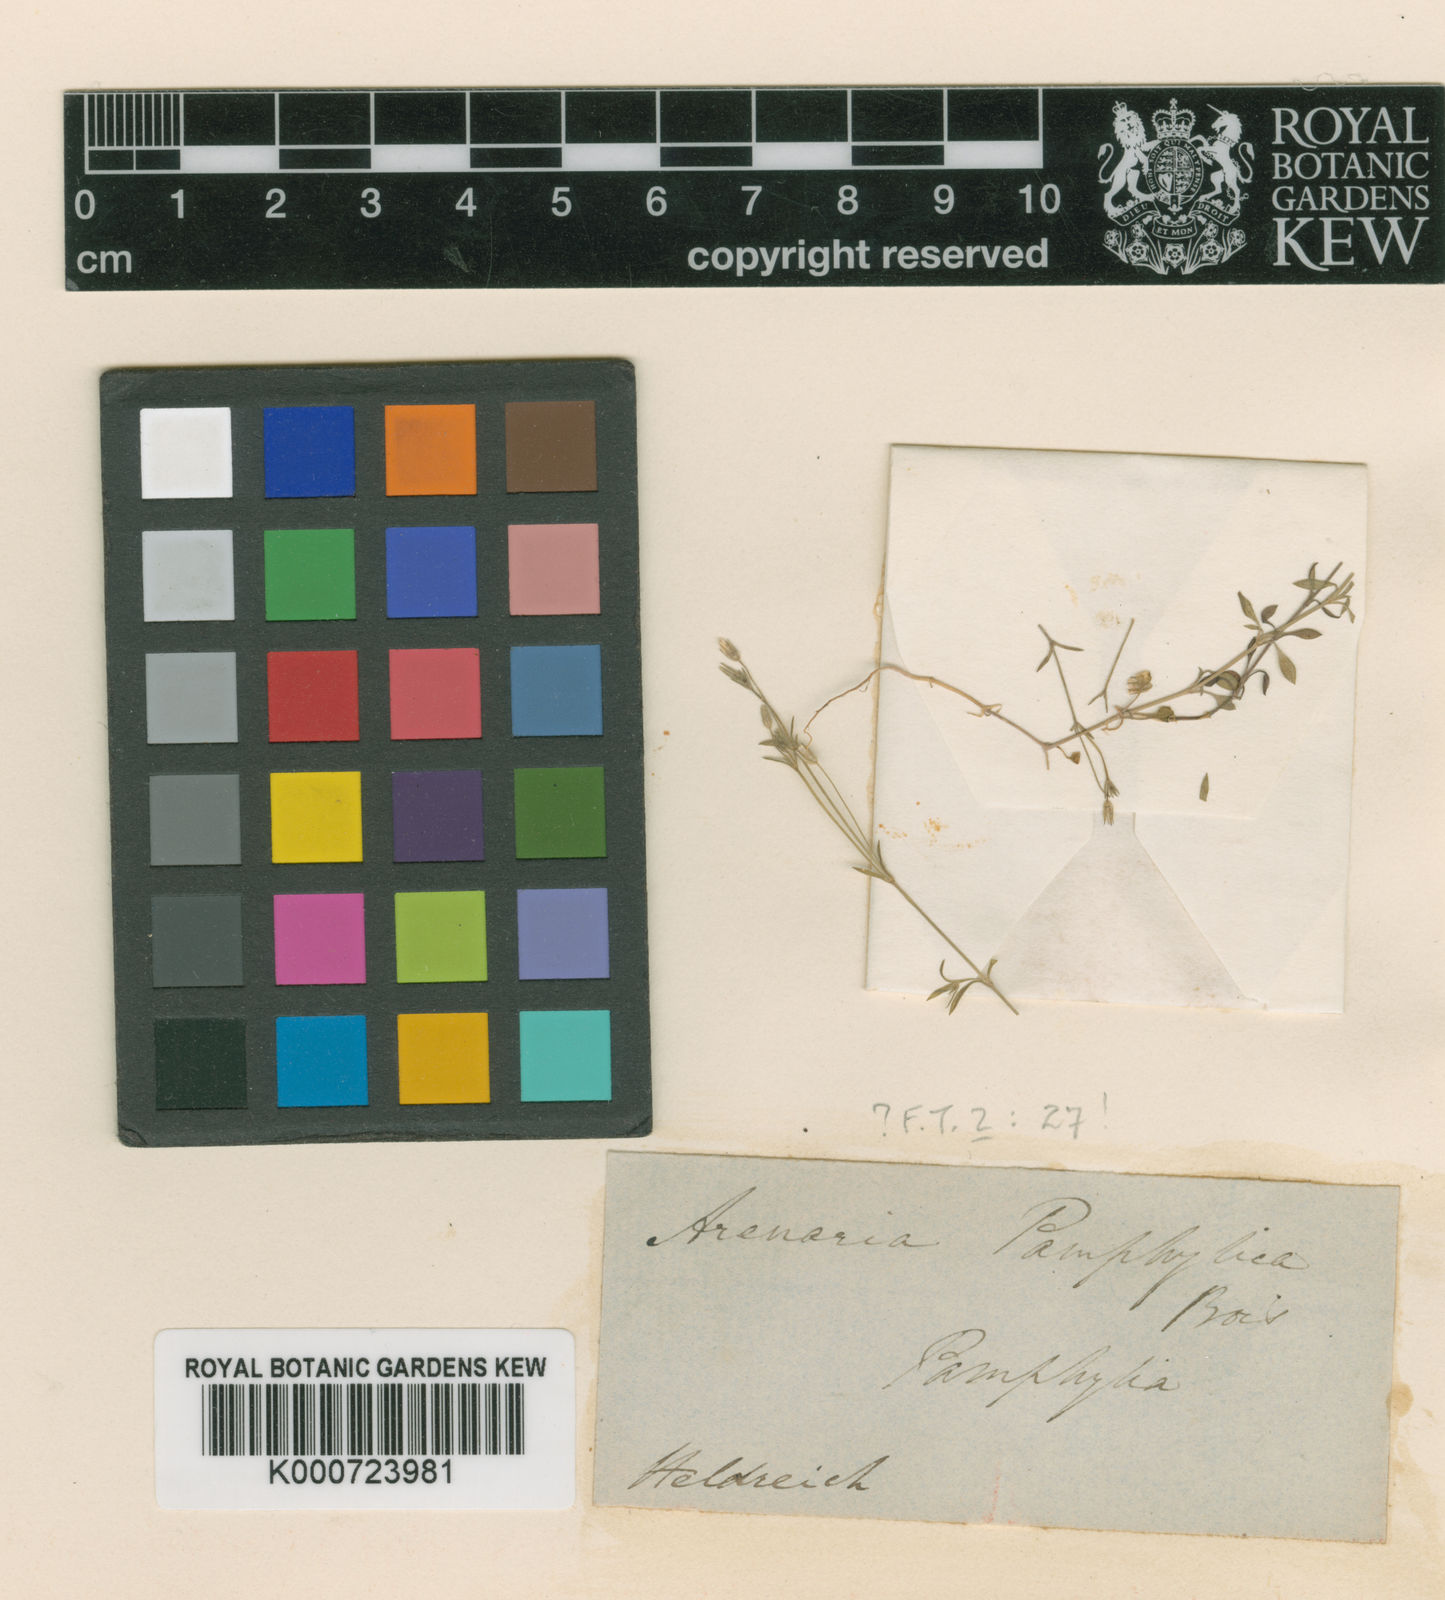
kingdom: Plantae
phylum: Tracheophyta
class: Magnoliopsida
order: Caryophyllales
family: Caryophyllaceae
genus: Arenaria
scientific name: Arenaria pamphylica
